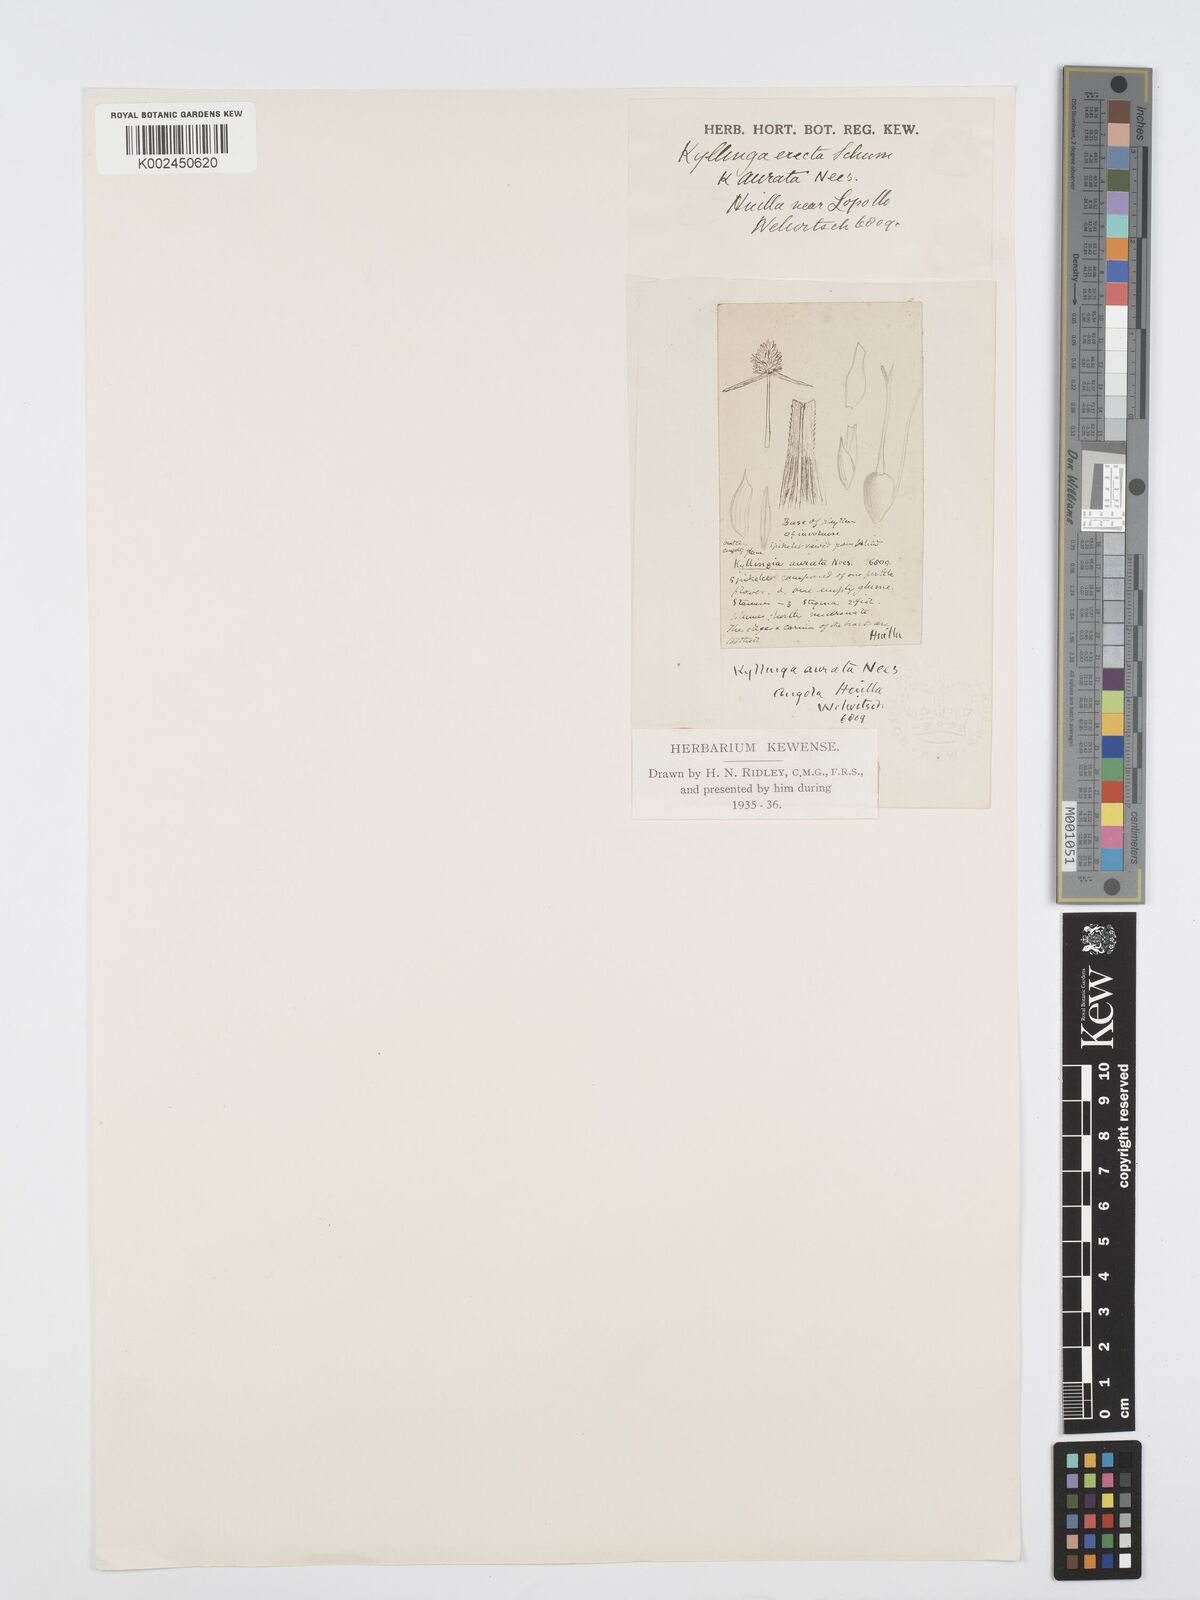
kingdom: Plantae
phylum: Tracheophyta
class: Liliopsida
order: Poales
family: Cyperaceae
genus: Cyperus
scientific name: Cyperus erectus
